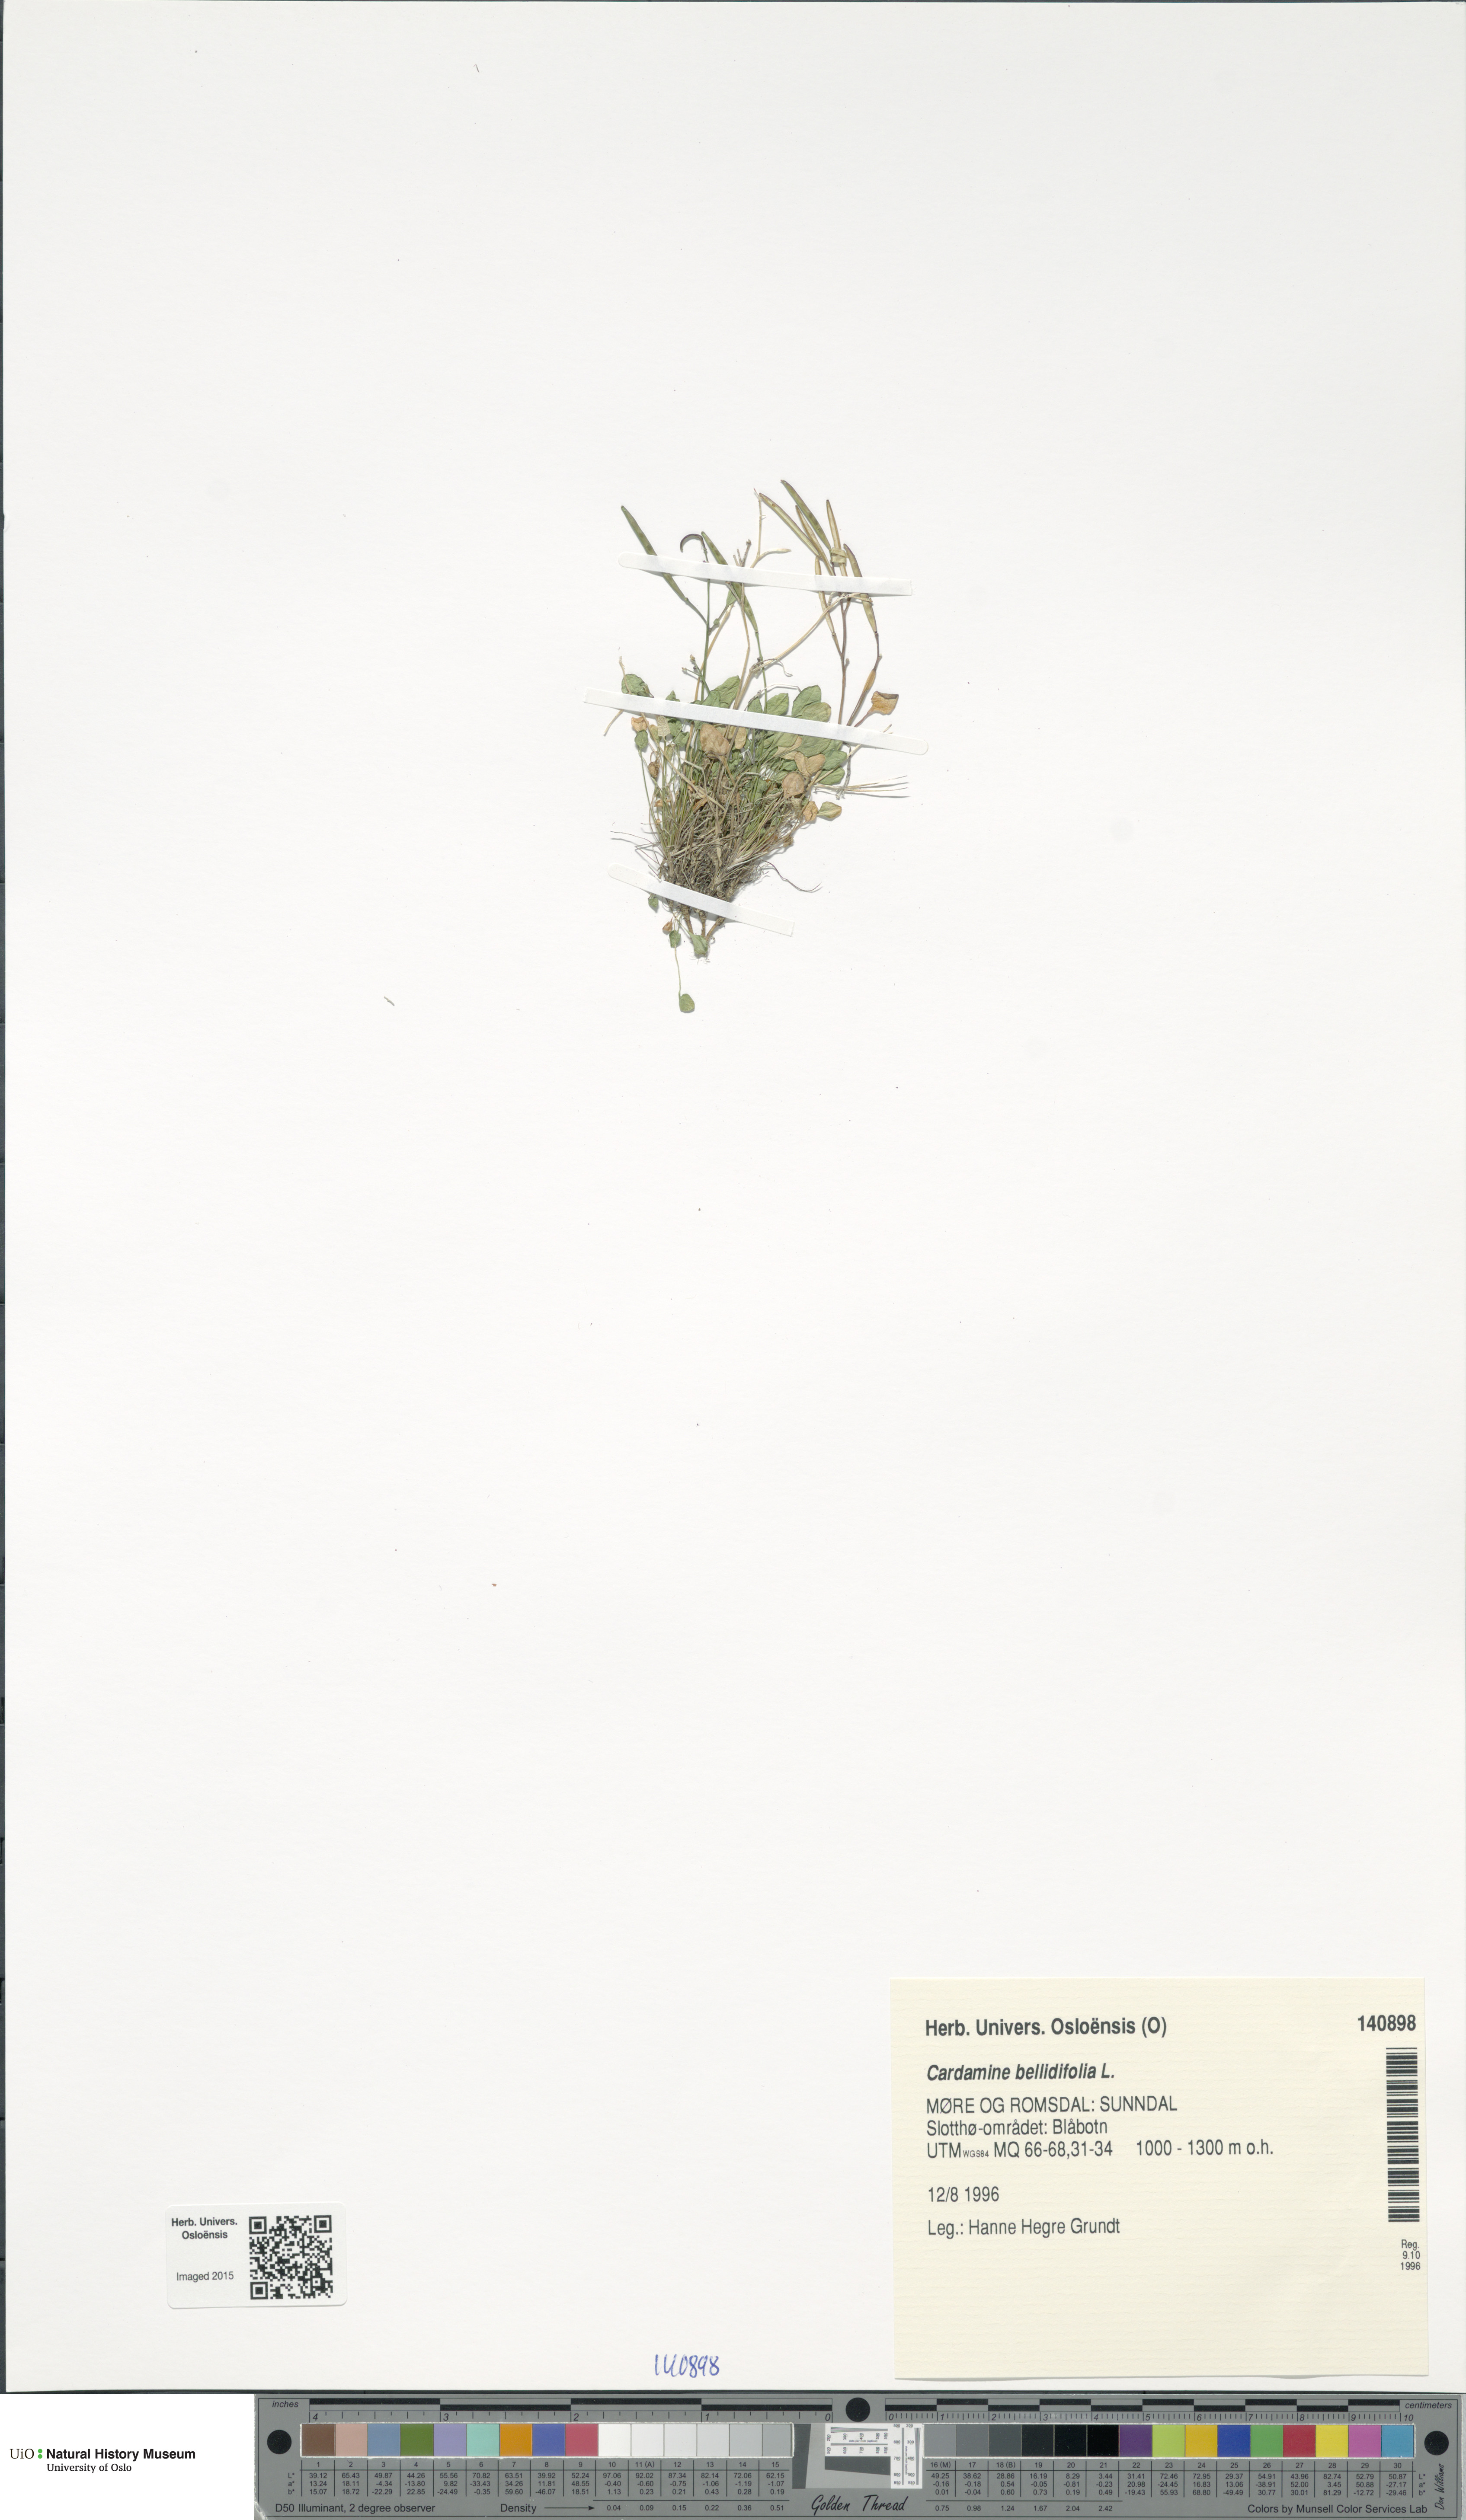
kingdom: Plantae
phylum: Tracheophyta
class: Magnoliopsida
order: Brassicales
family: Brassicaceae
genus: Cardamine
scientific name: Cardamine bellidifolia
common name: Alpine bittercress
